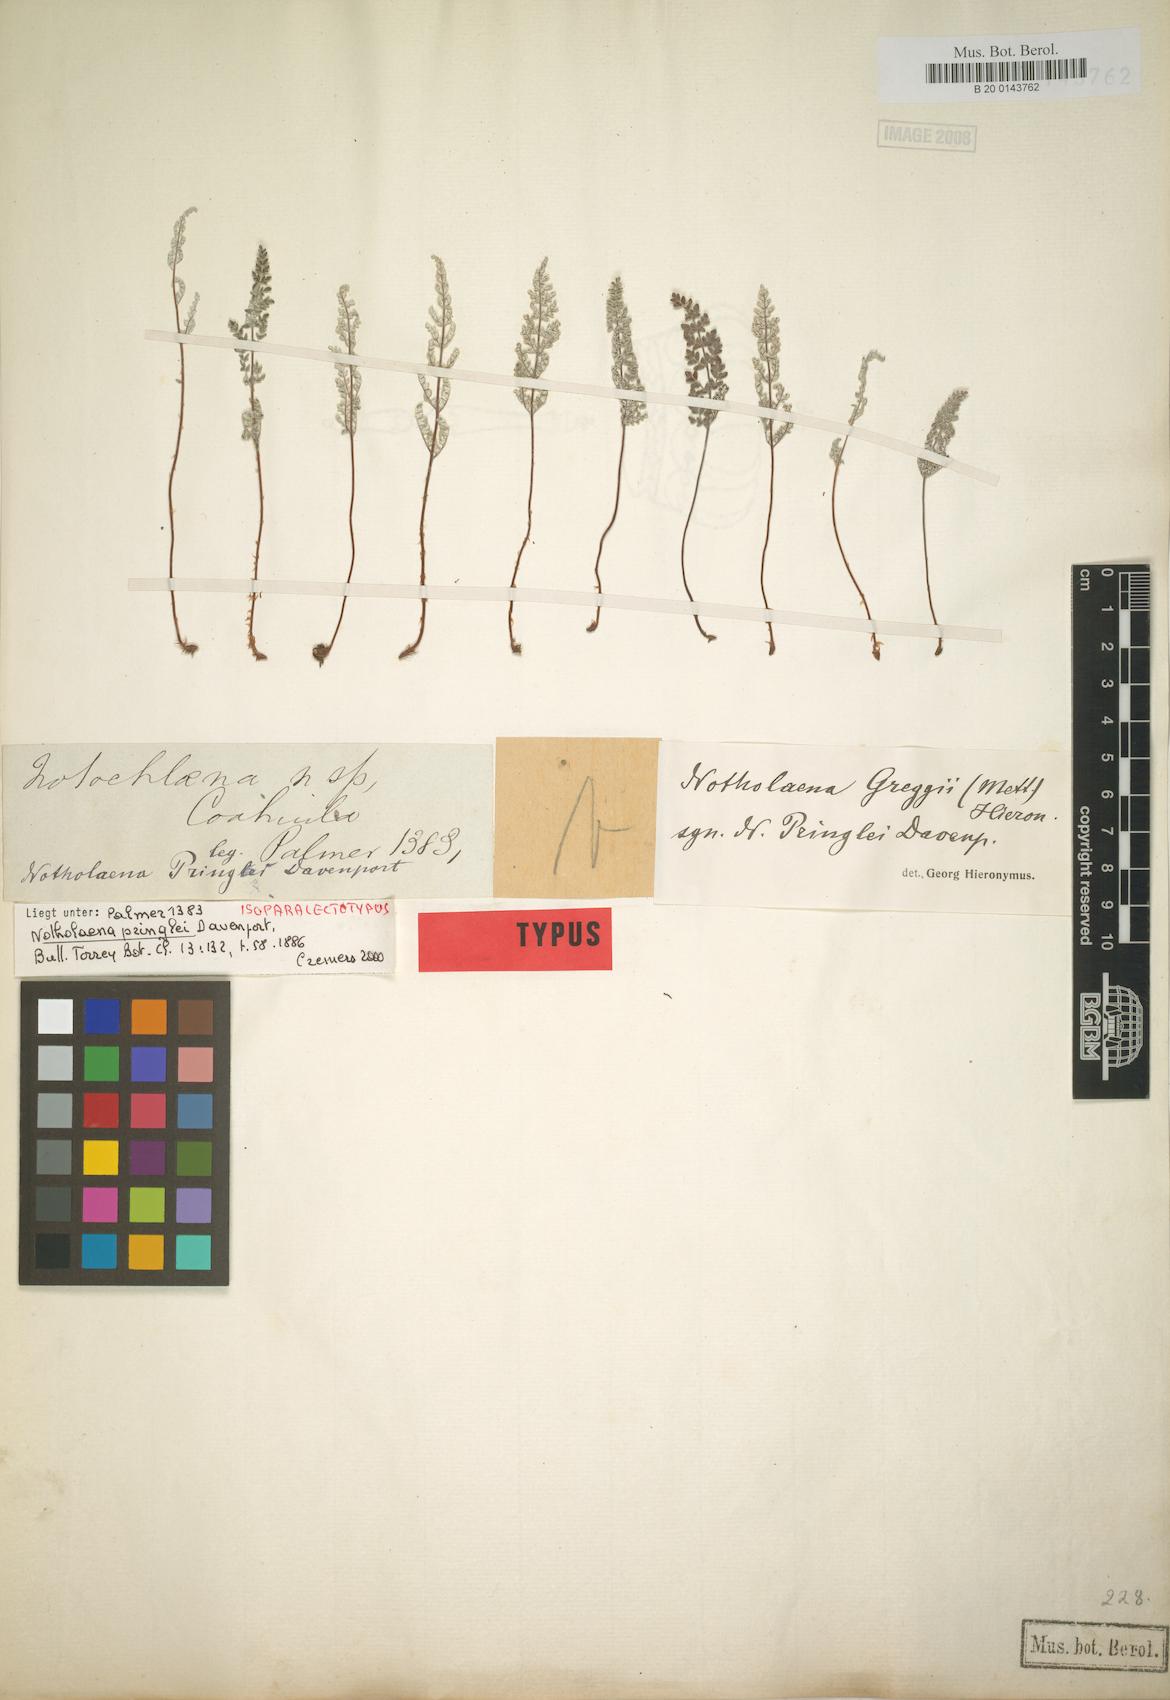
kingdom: Plantae
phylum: Tracheophyta
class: Polypodiopsida
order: Polypodiales
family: Pteridaceae
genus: Notholaena
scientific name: Notholaena greggii
